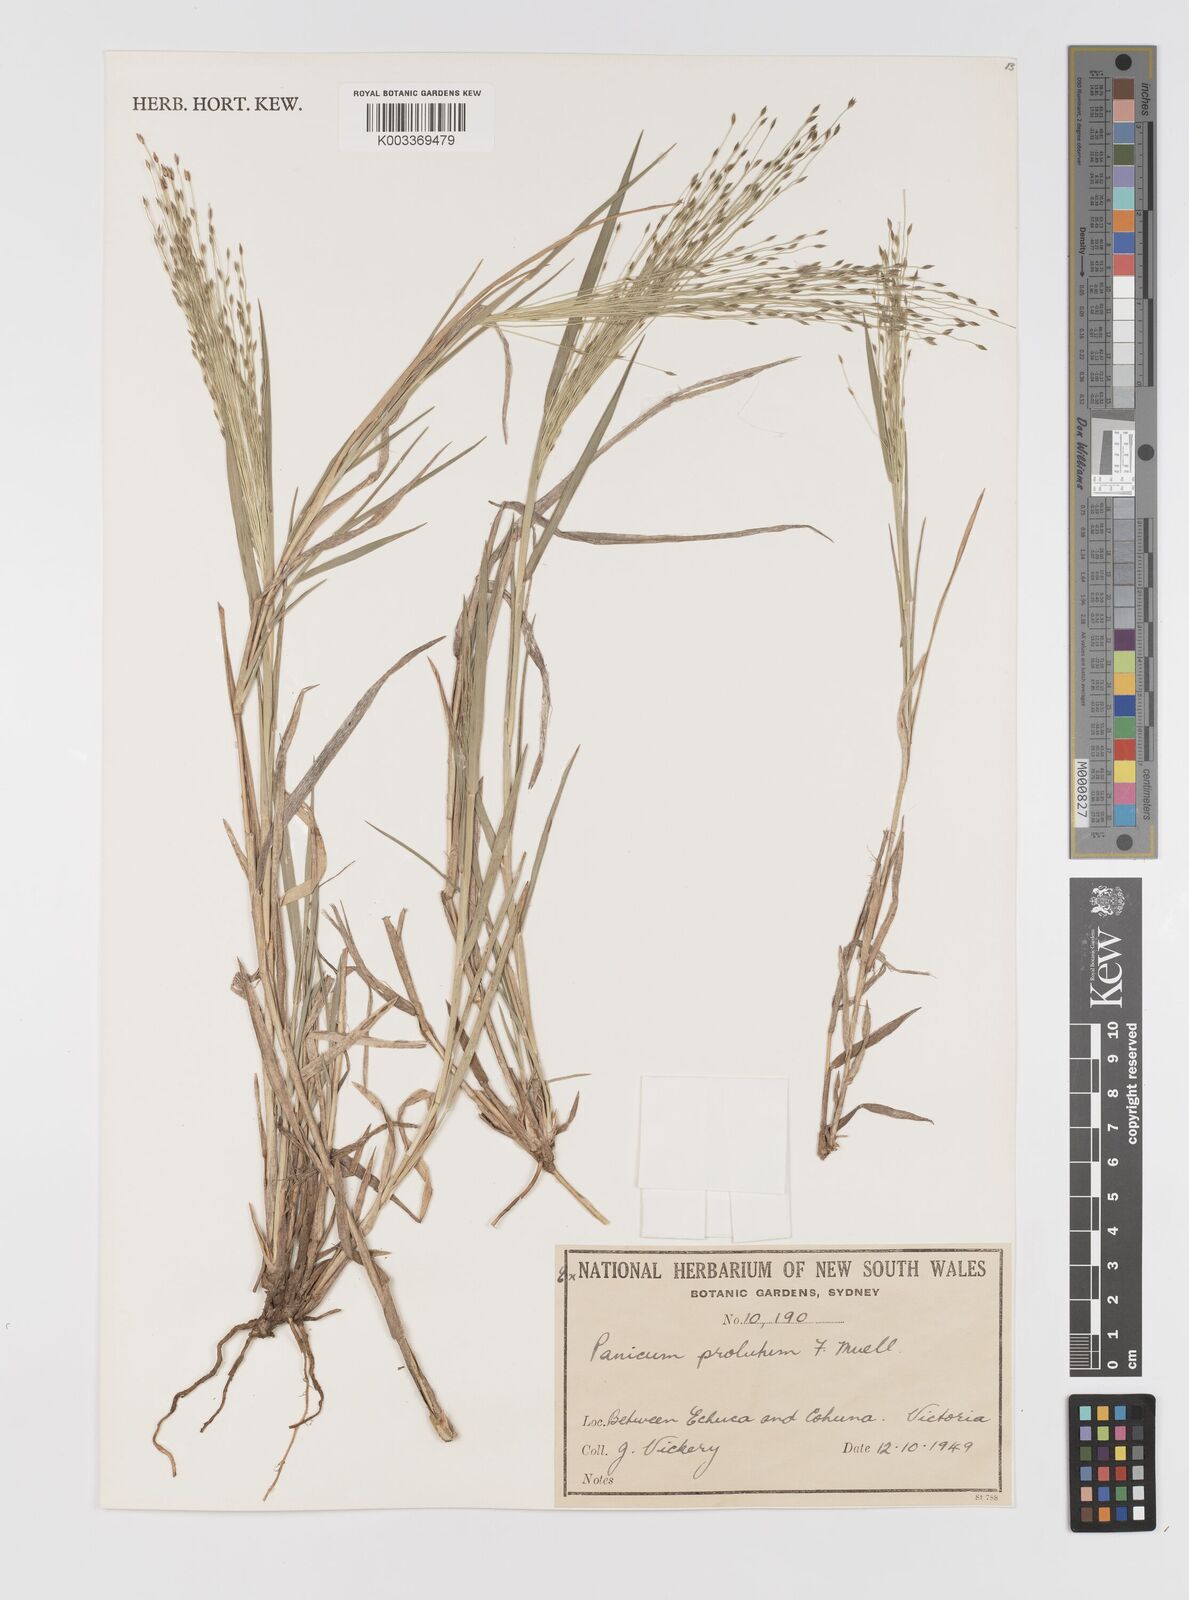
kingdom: Plantae
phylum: Tracheophyta
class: Liliopsida
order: Poales
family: Poaceae
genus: Walwhalleya
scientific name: Walwhalleya proluta
